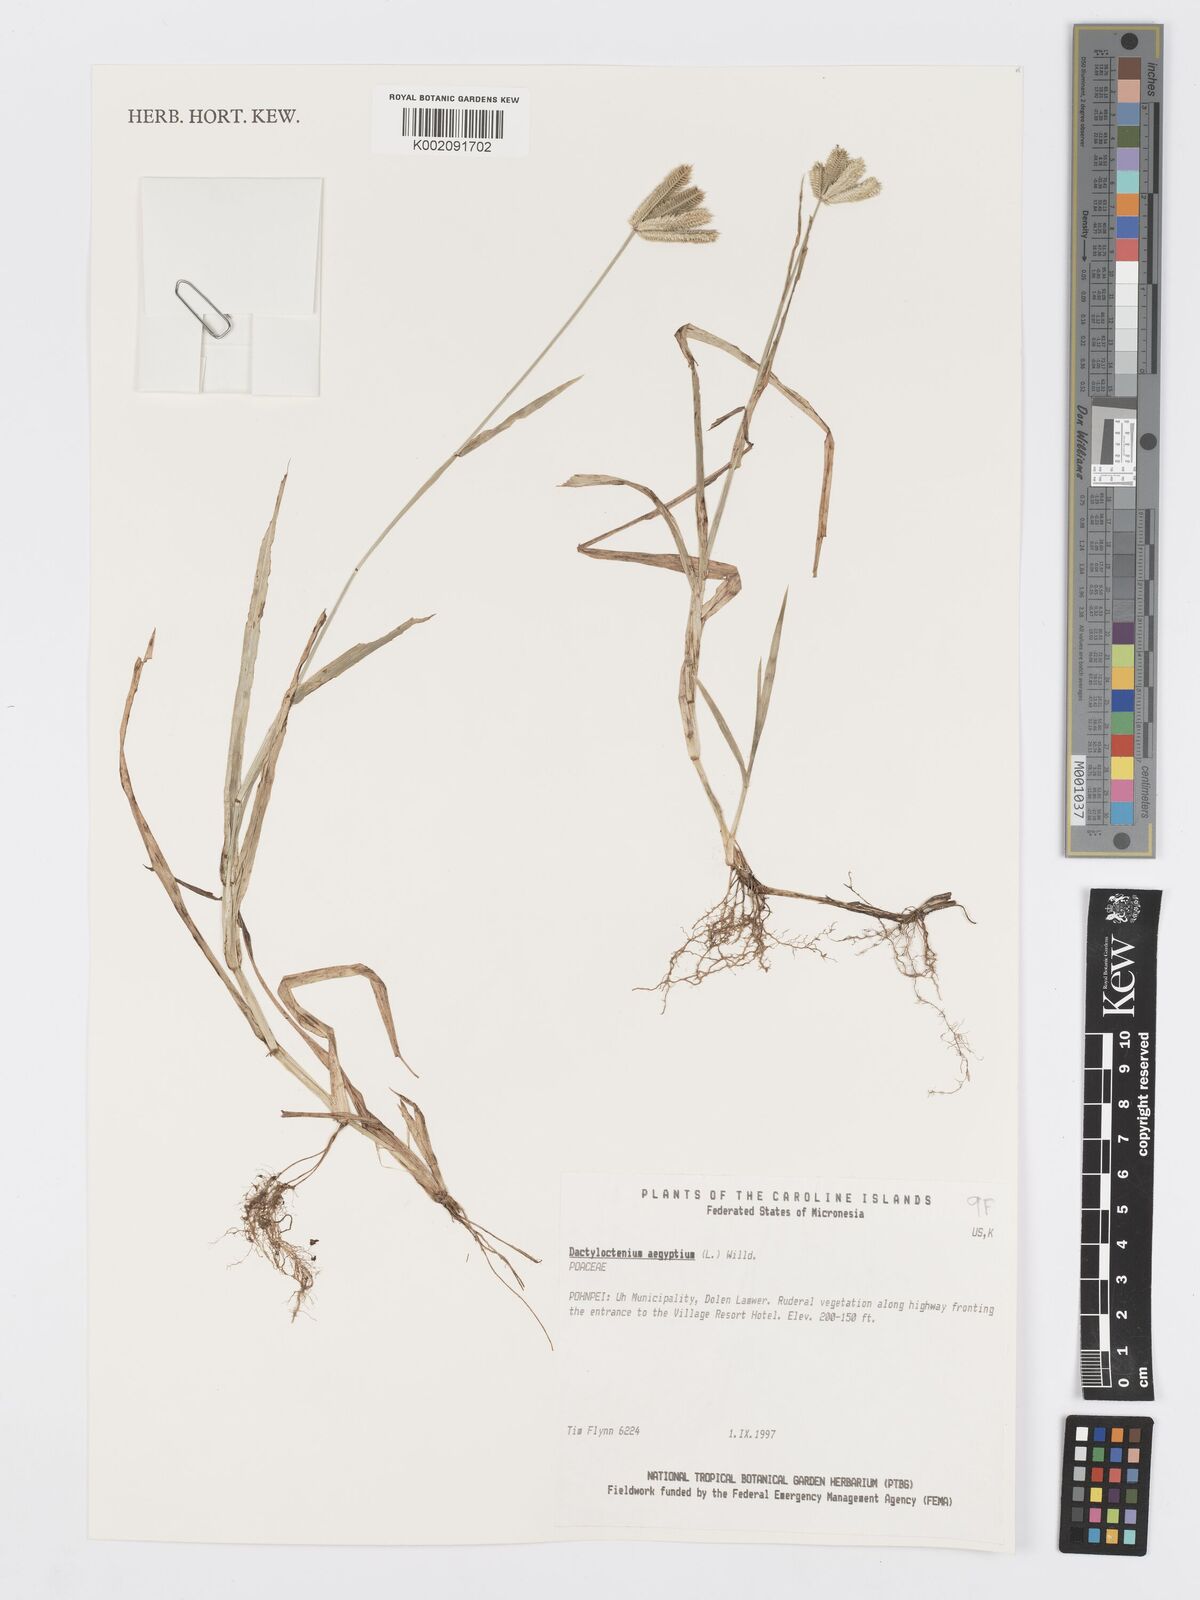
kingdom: Plantae
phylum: Tracheophyta
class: Liliopsida
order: Poales
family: Poaceae
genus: Dactyloctenium
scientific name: Dactyloctenium aegyptium
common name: Egyptian grass
